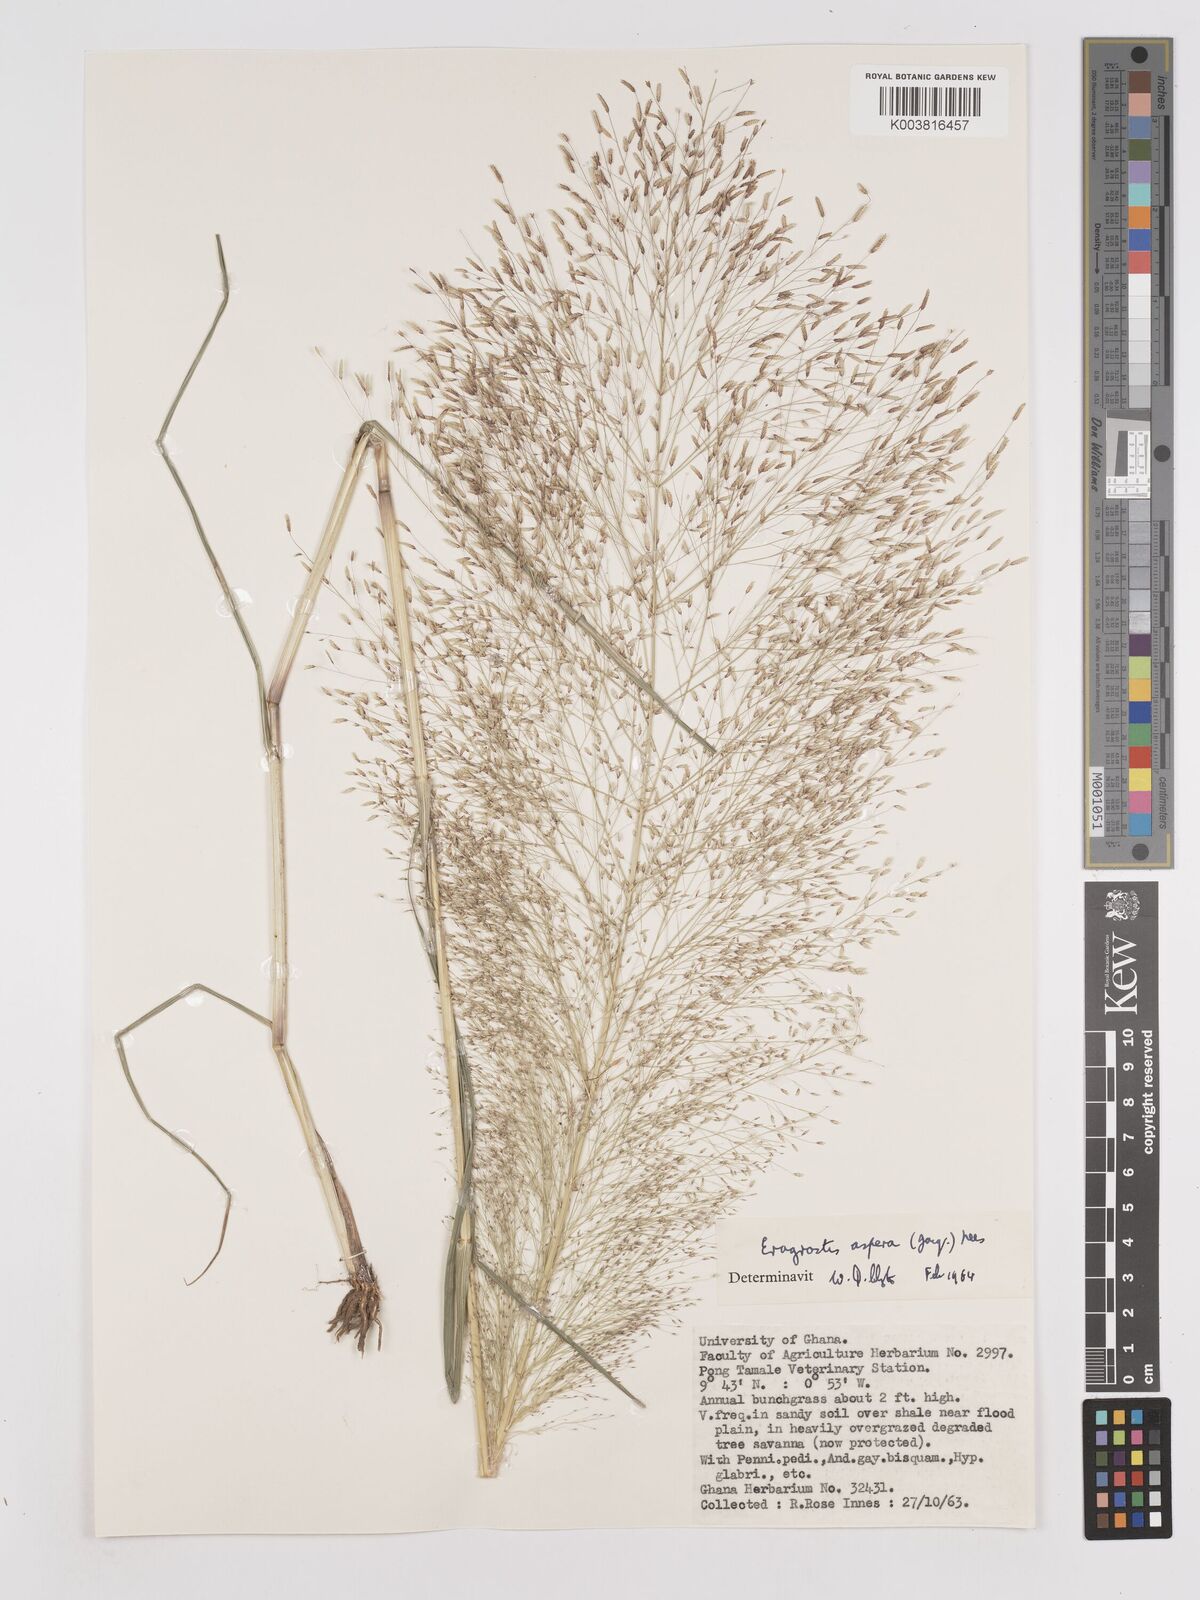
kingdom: Plantae
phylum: Tracheophyta
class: Liliopsida
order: Poales
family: Poaceae
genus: Eragrostis
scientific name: Eragrostis aspera
